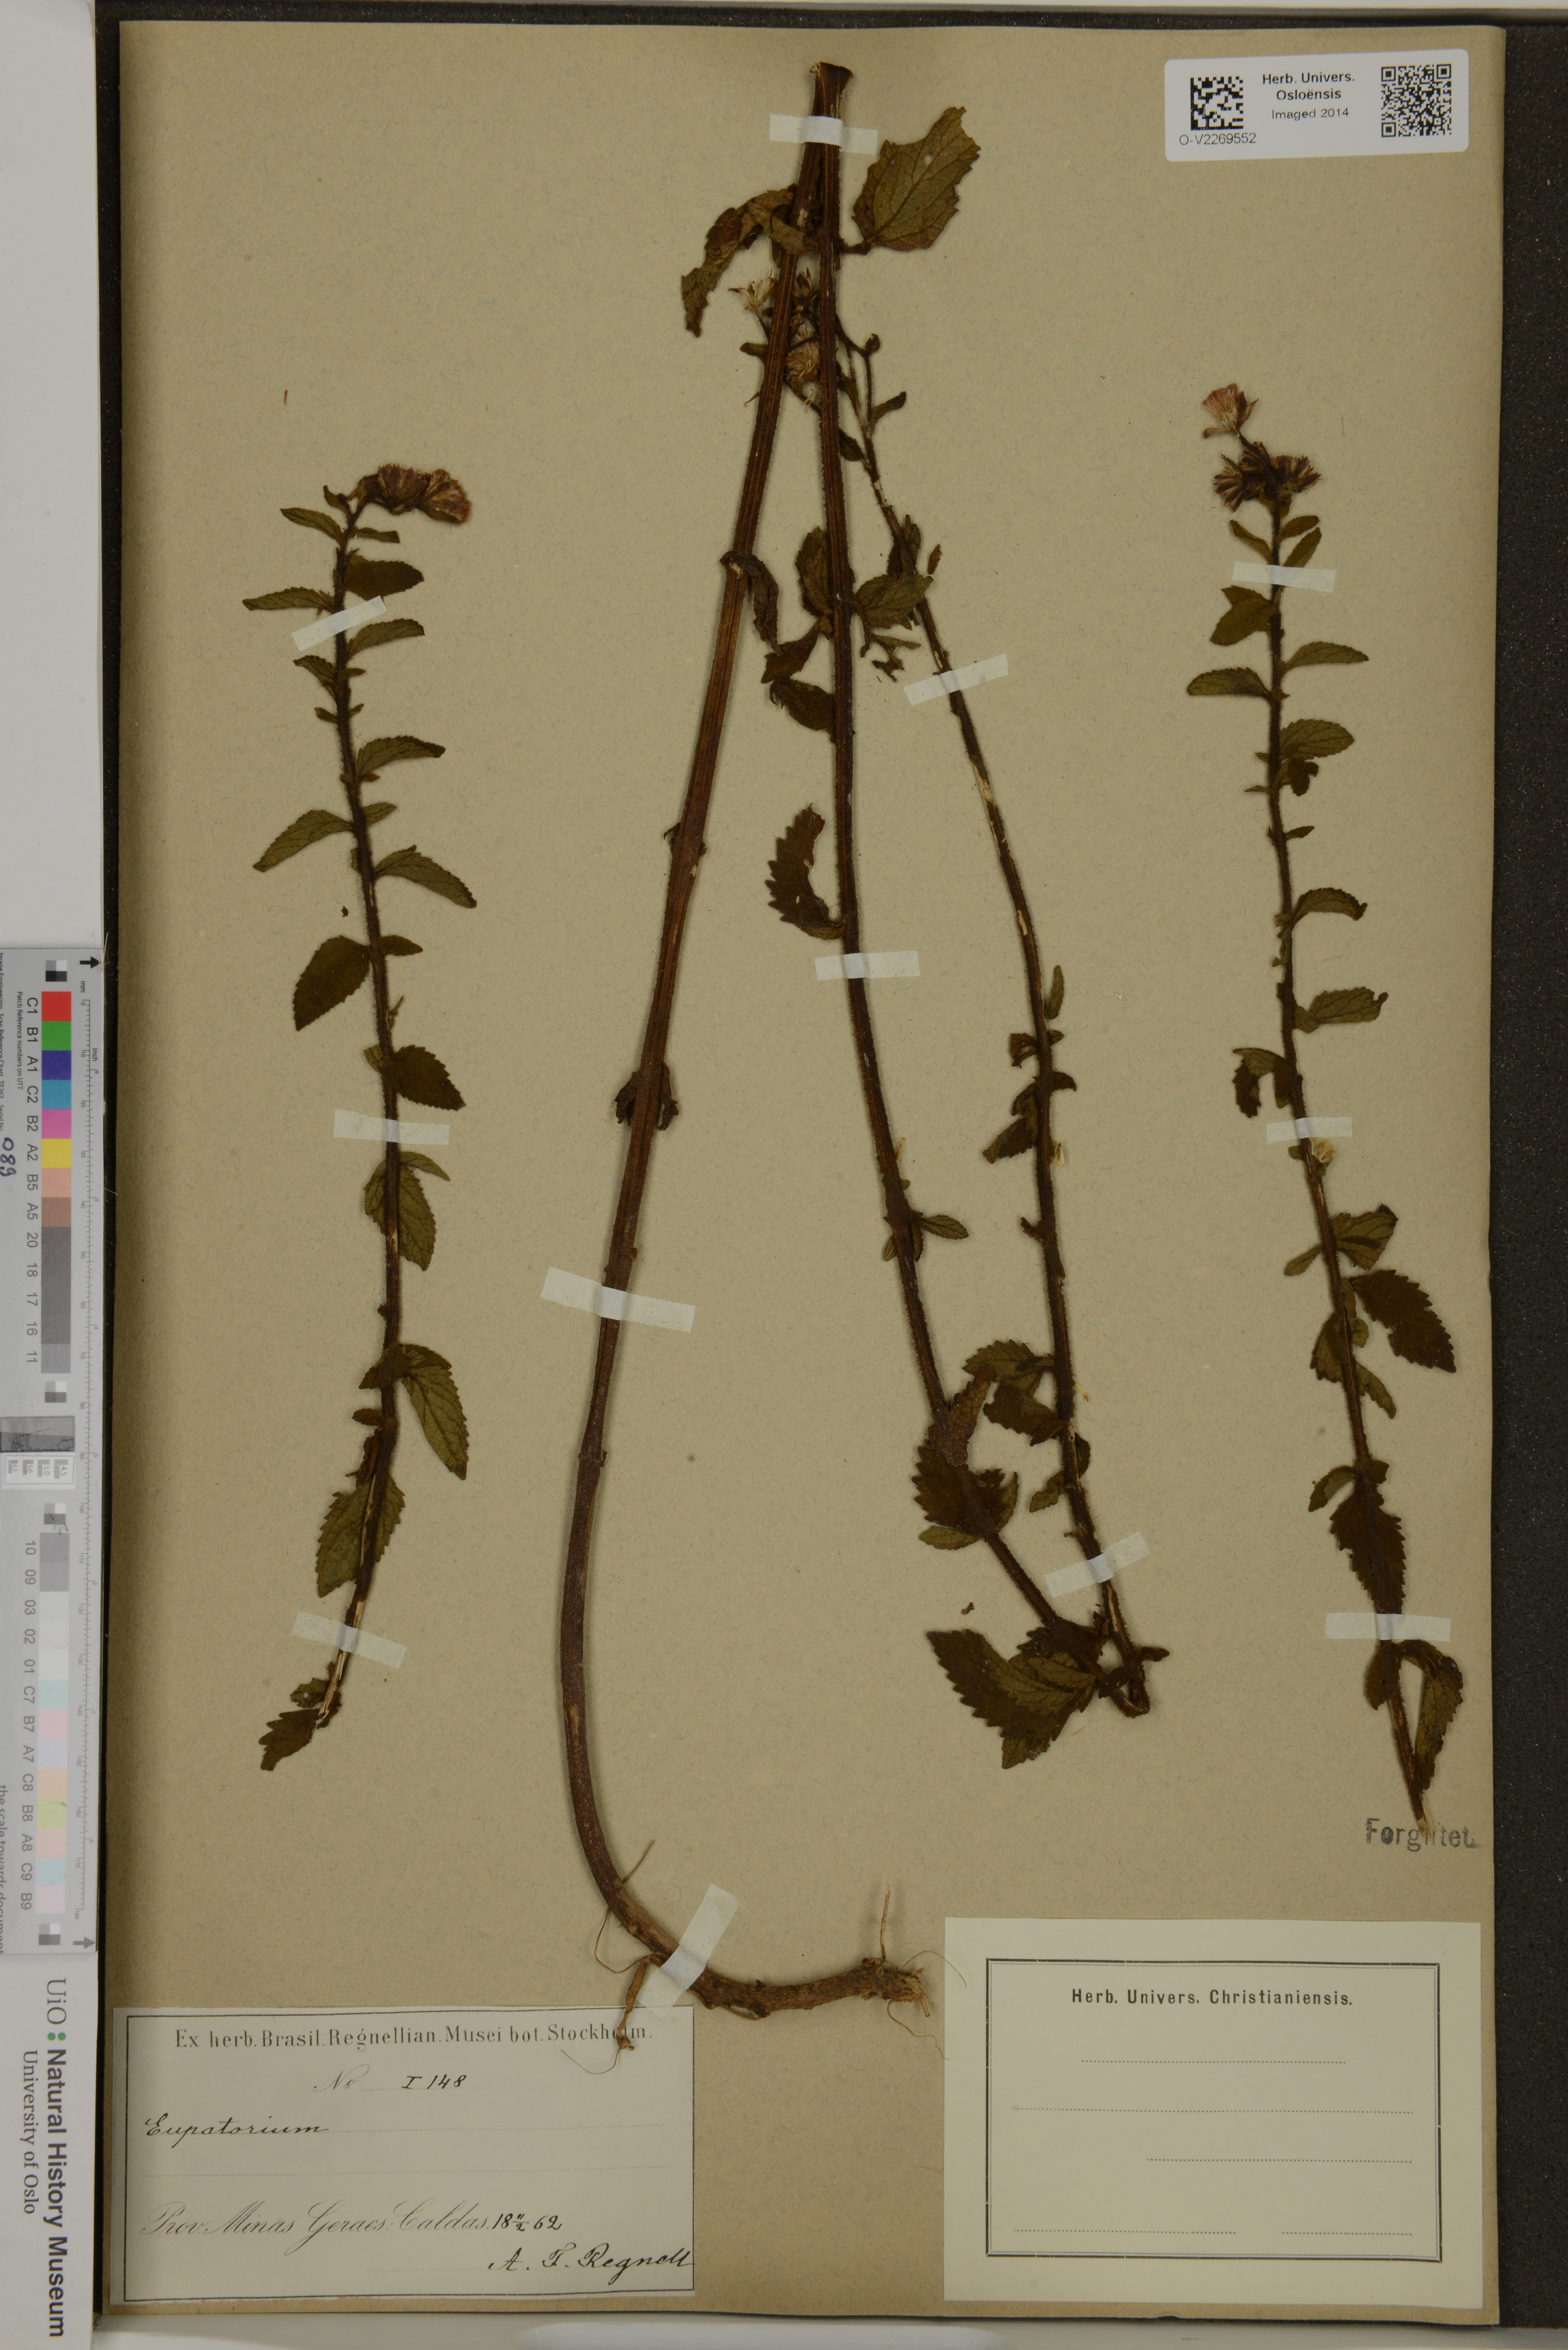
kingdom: Plantae
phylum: Tracheophyta
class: Magnoliopsida
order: Asterales
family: Asteraceae
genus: Eupatorium
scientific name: Eupatorium
